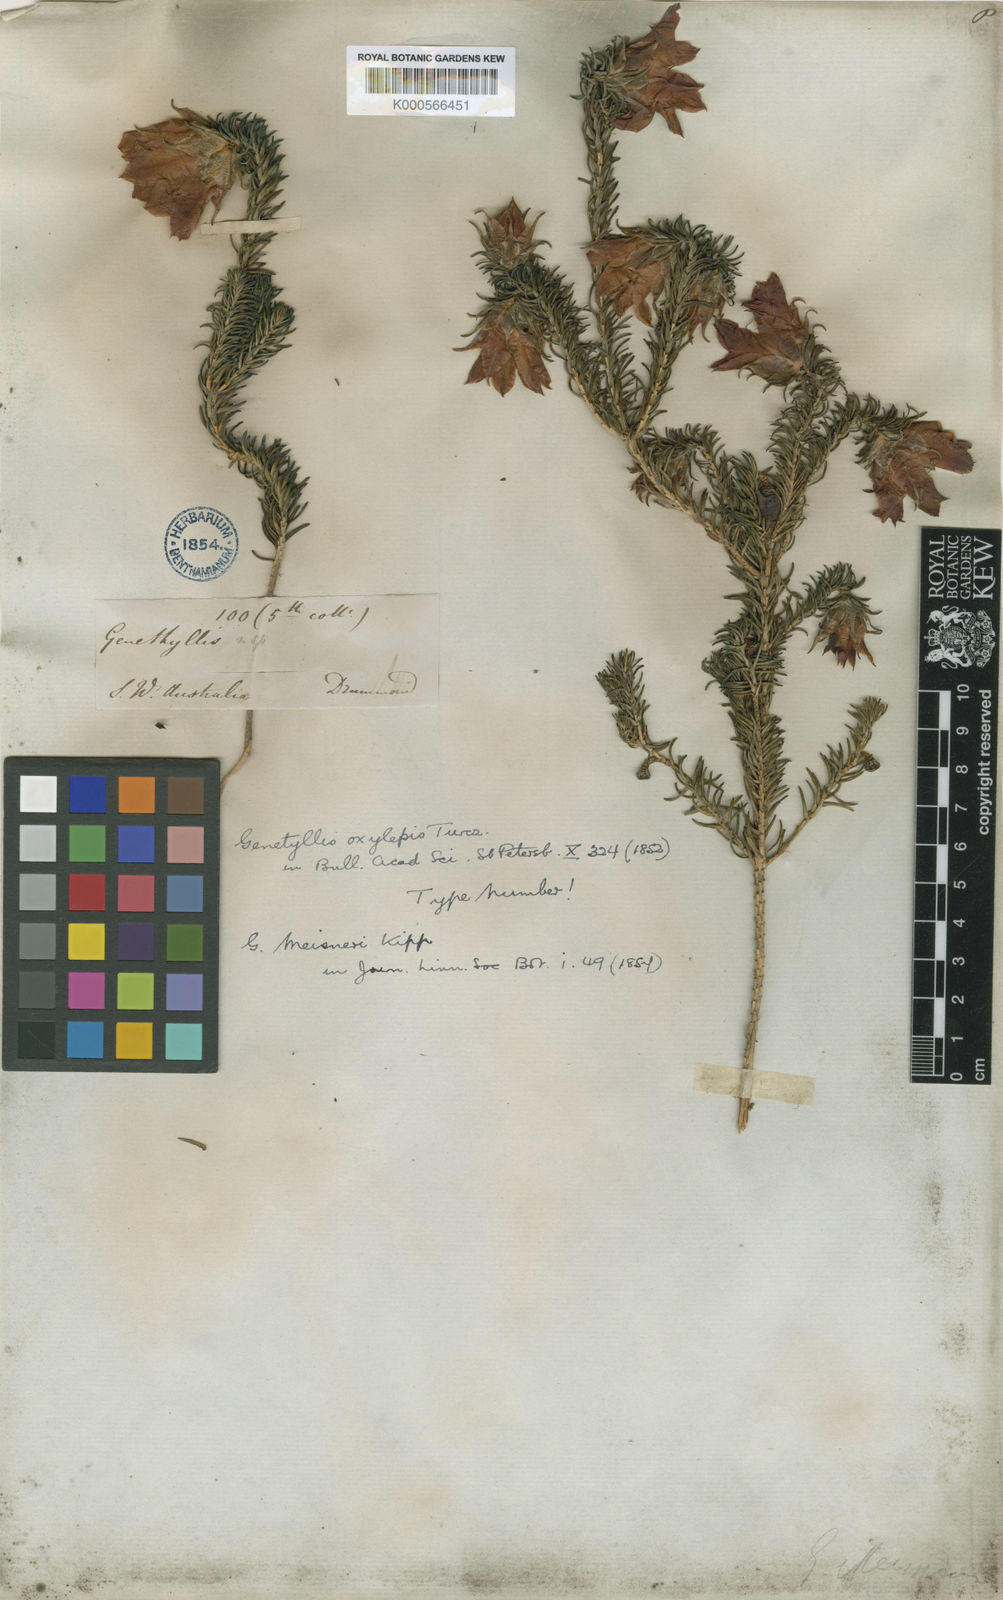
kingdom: Plantae
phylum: Tracheophyta
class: Magnoliopsida
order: Myrtales
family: Myrtaceae
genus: Darwinia
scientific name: Darwinia oxylepis
